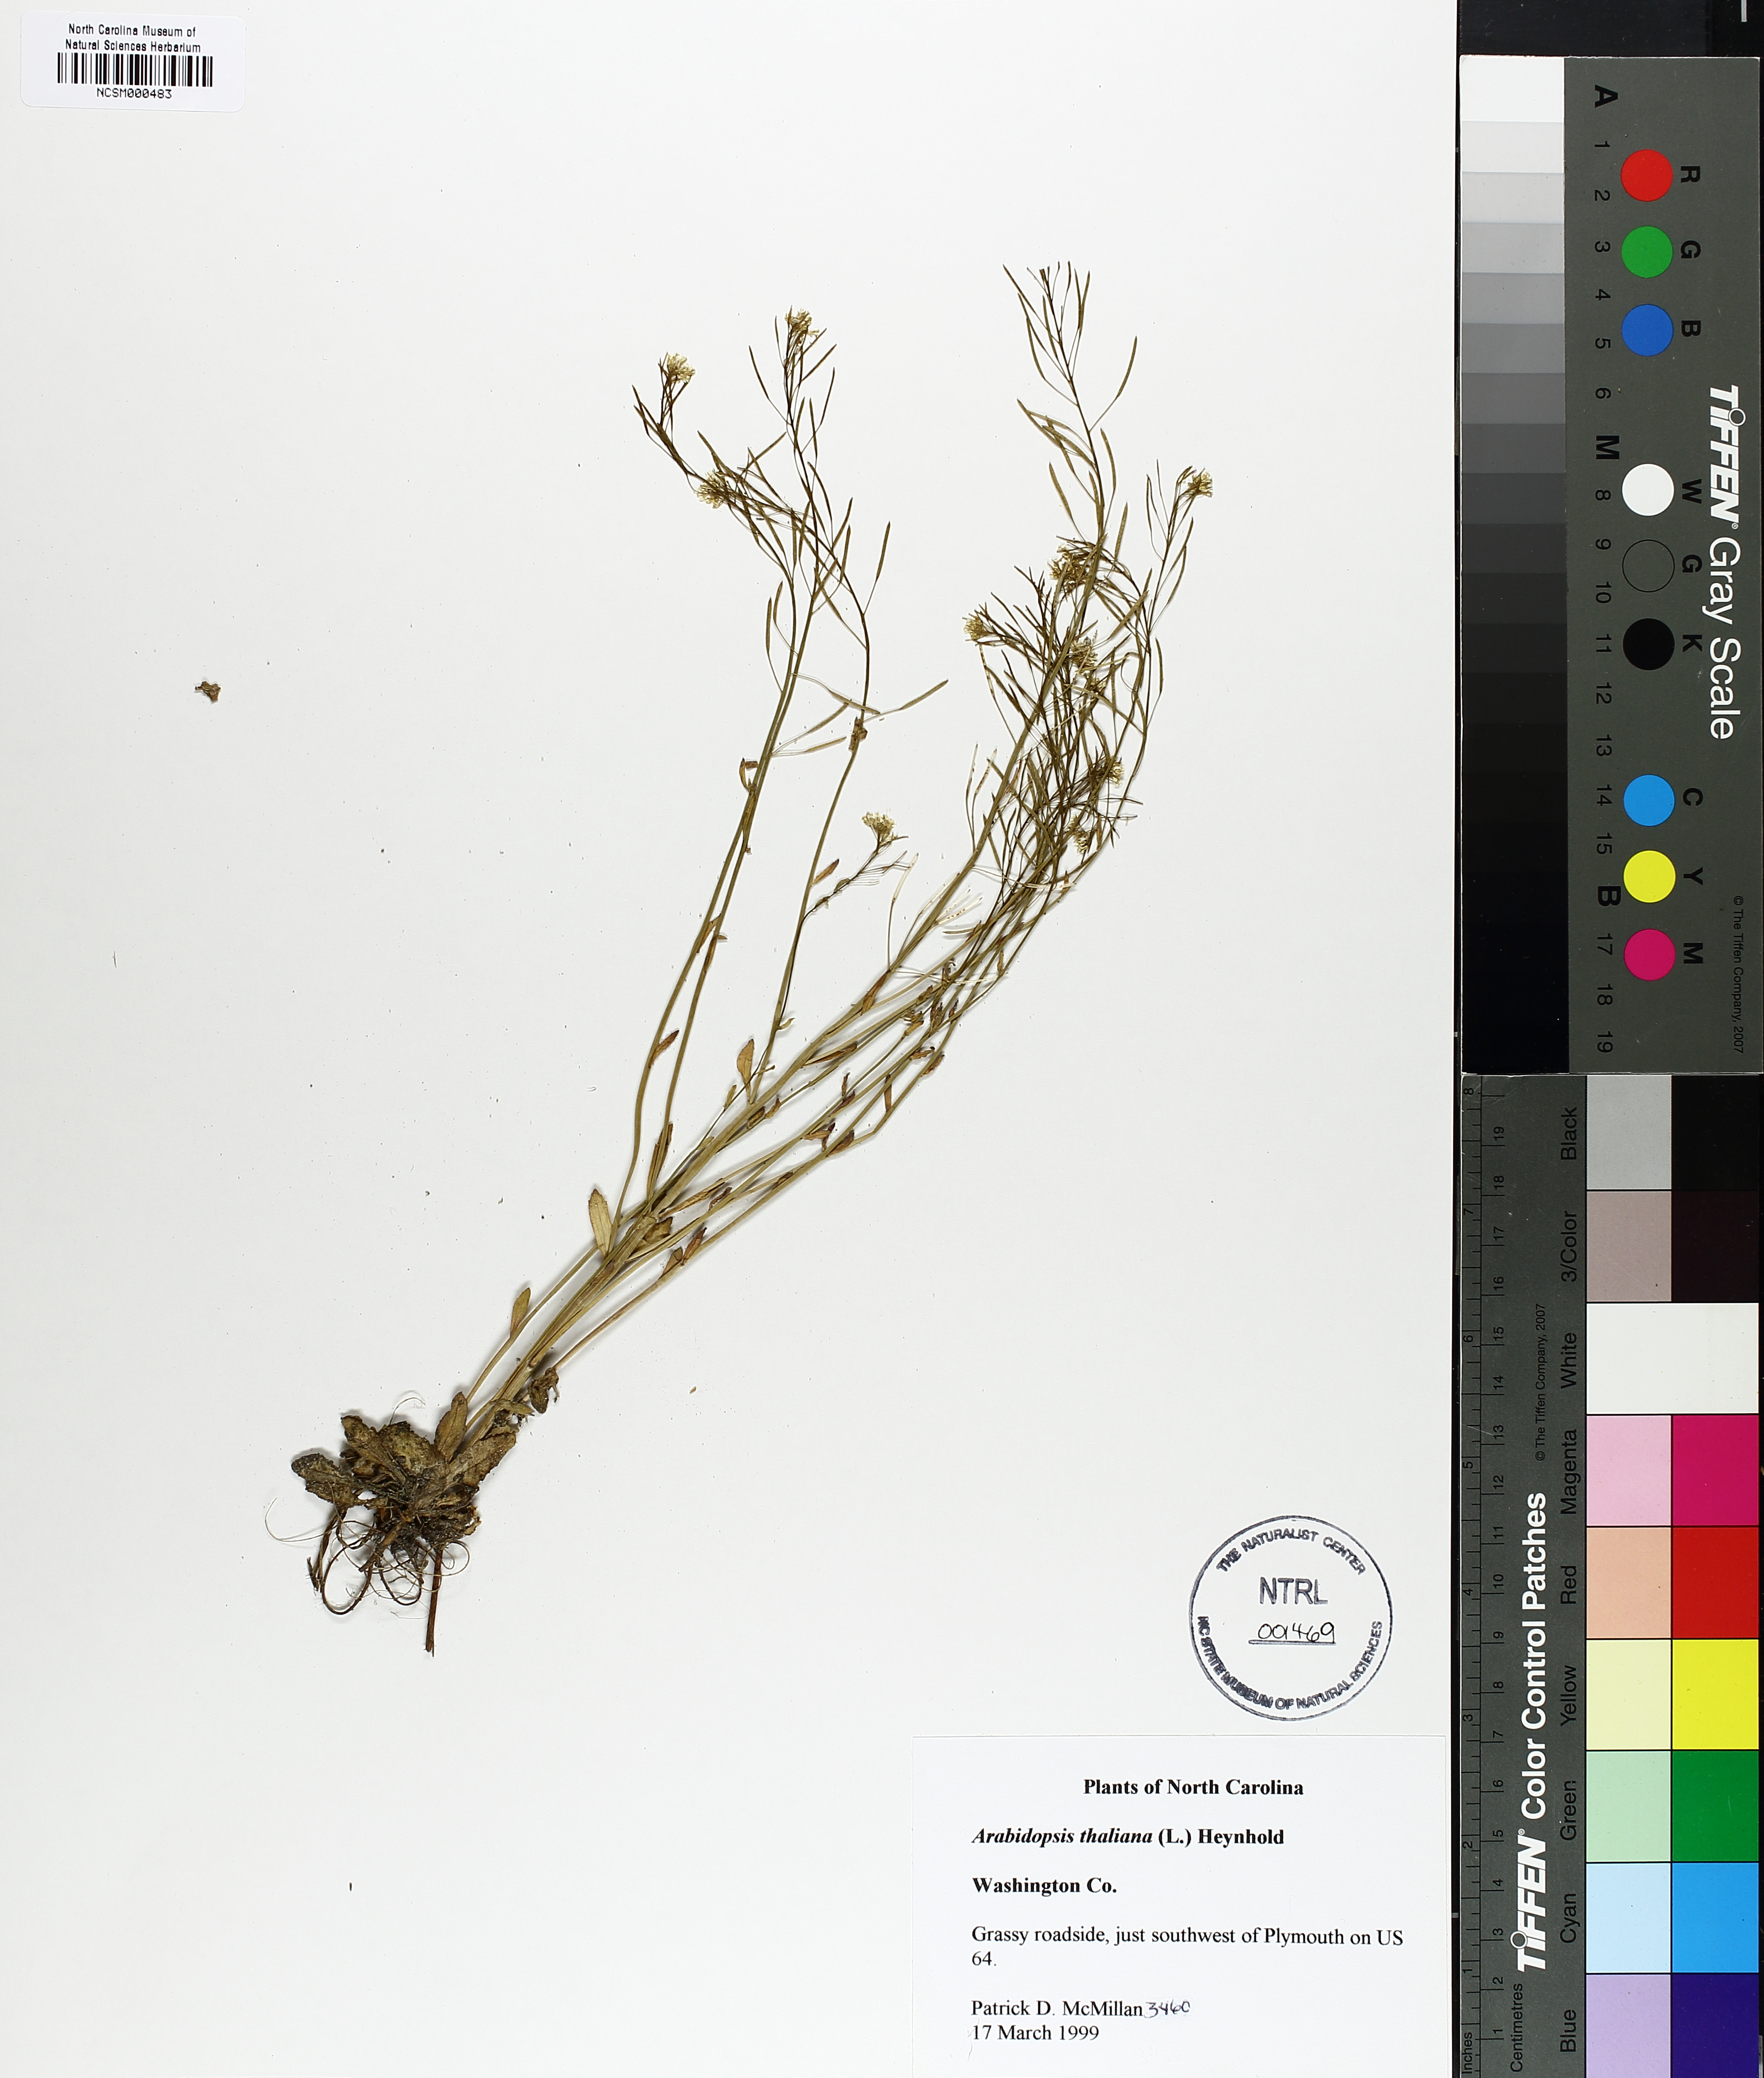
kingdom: Plantae
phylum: Tracheophyta
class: Magnoliopsida
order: Brassicales
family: Brassicaceae
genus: Arabidopsis
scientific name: Arabidopsis thaliana
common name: Thale cress
